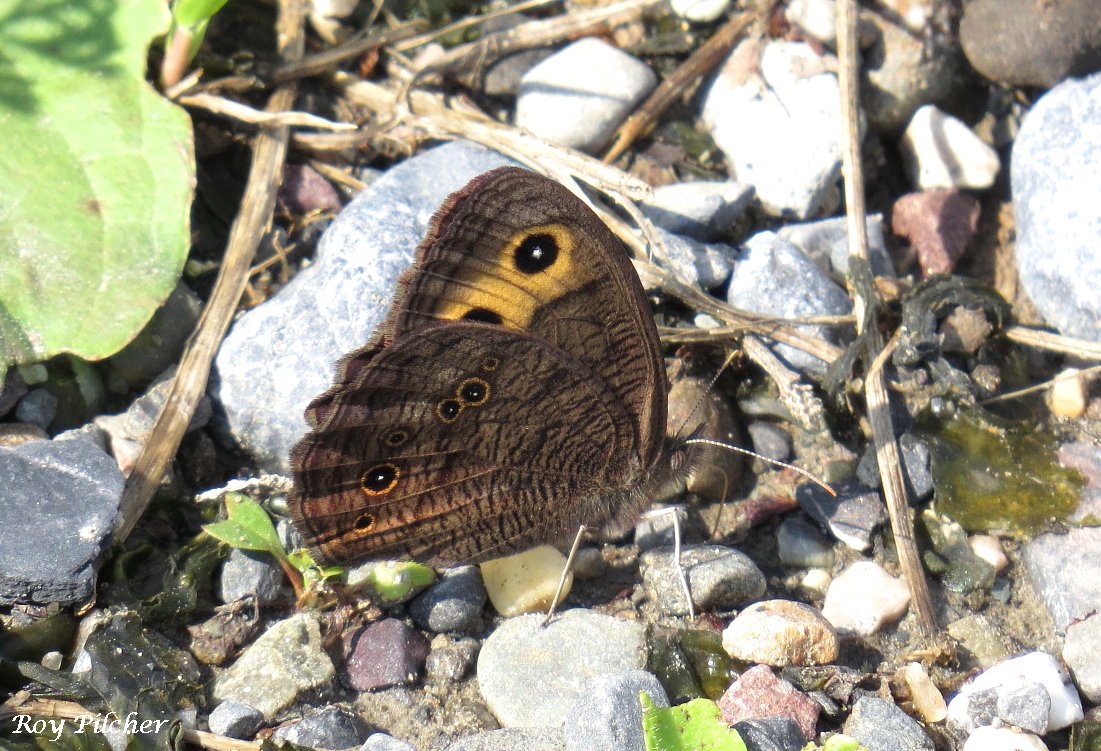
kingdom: Animalia
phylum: Arthropoda
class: Insecta
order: Lepidoptera
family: Nymphalidae
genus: Cercyonis
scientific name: Cercyonis pegala
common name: Common Wood-Nymph
